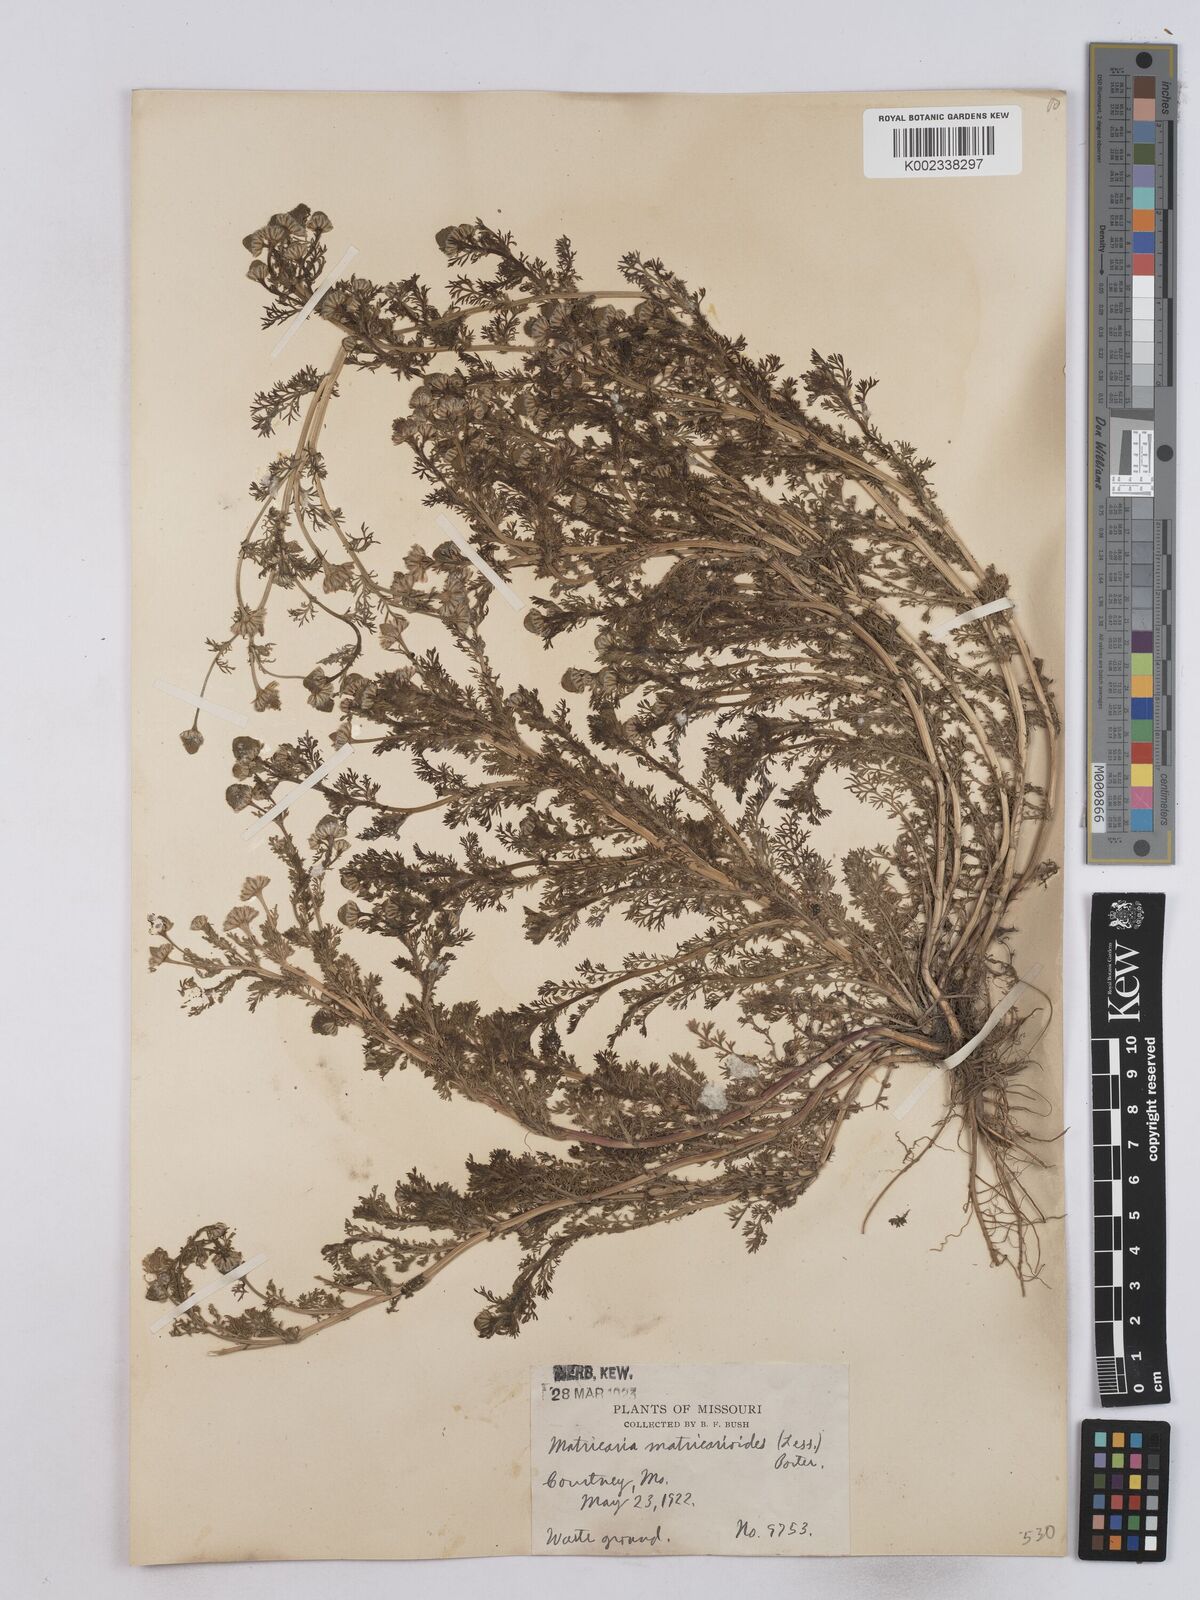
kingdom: Plantae
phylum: Tracheophyta
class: Magnoliopsida
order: Asterales
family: Asteraceae
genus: Matricaria
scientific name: Matricaria discoidea
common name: Disc mayweed
